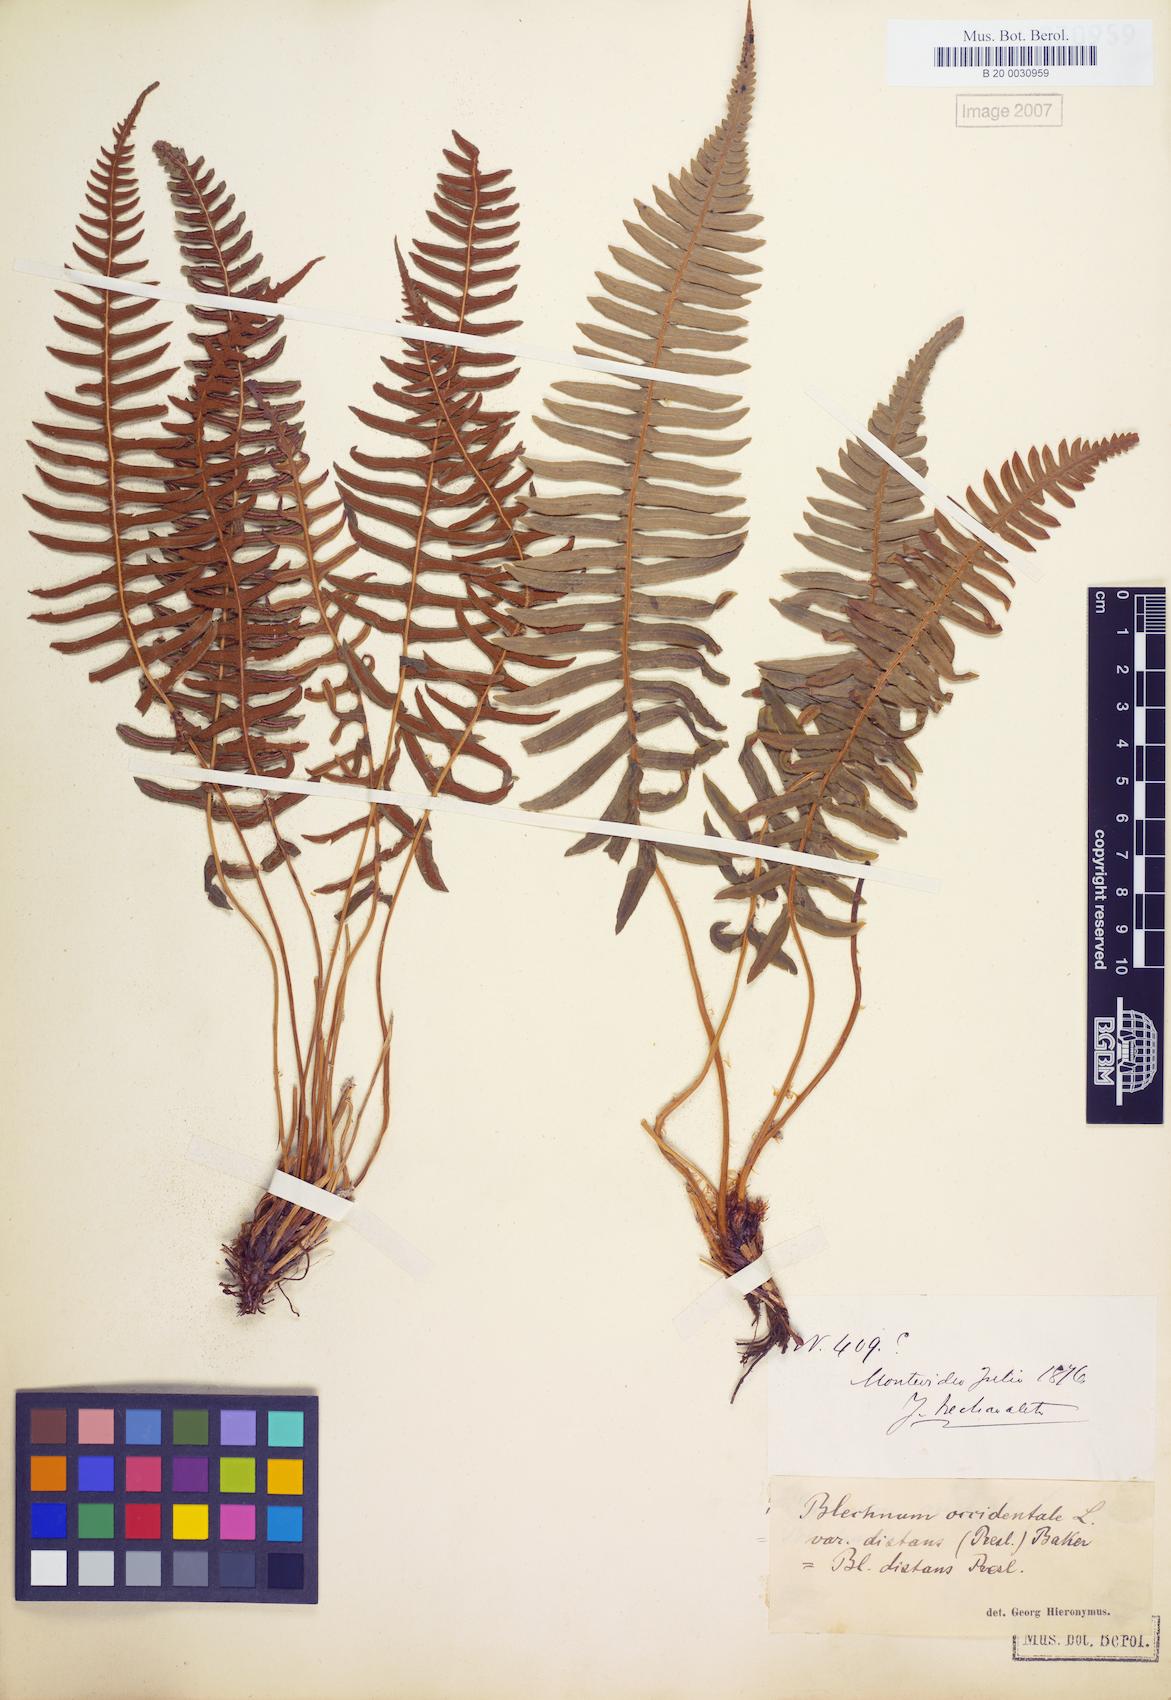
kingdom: Plantae
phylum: Tracheophyta
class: Polypodiopsida
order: Polypodiales
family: Blechnaceae
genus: Blechnum
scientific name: Blechnum laevigatum
